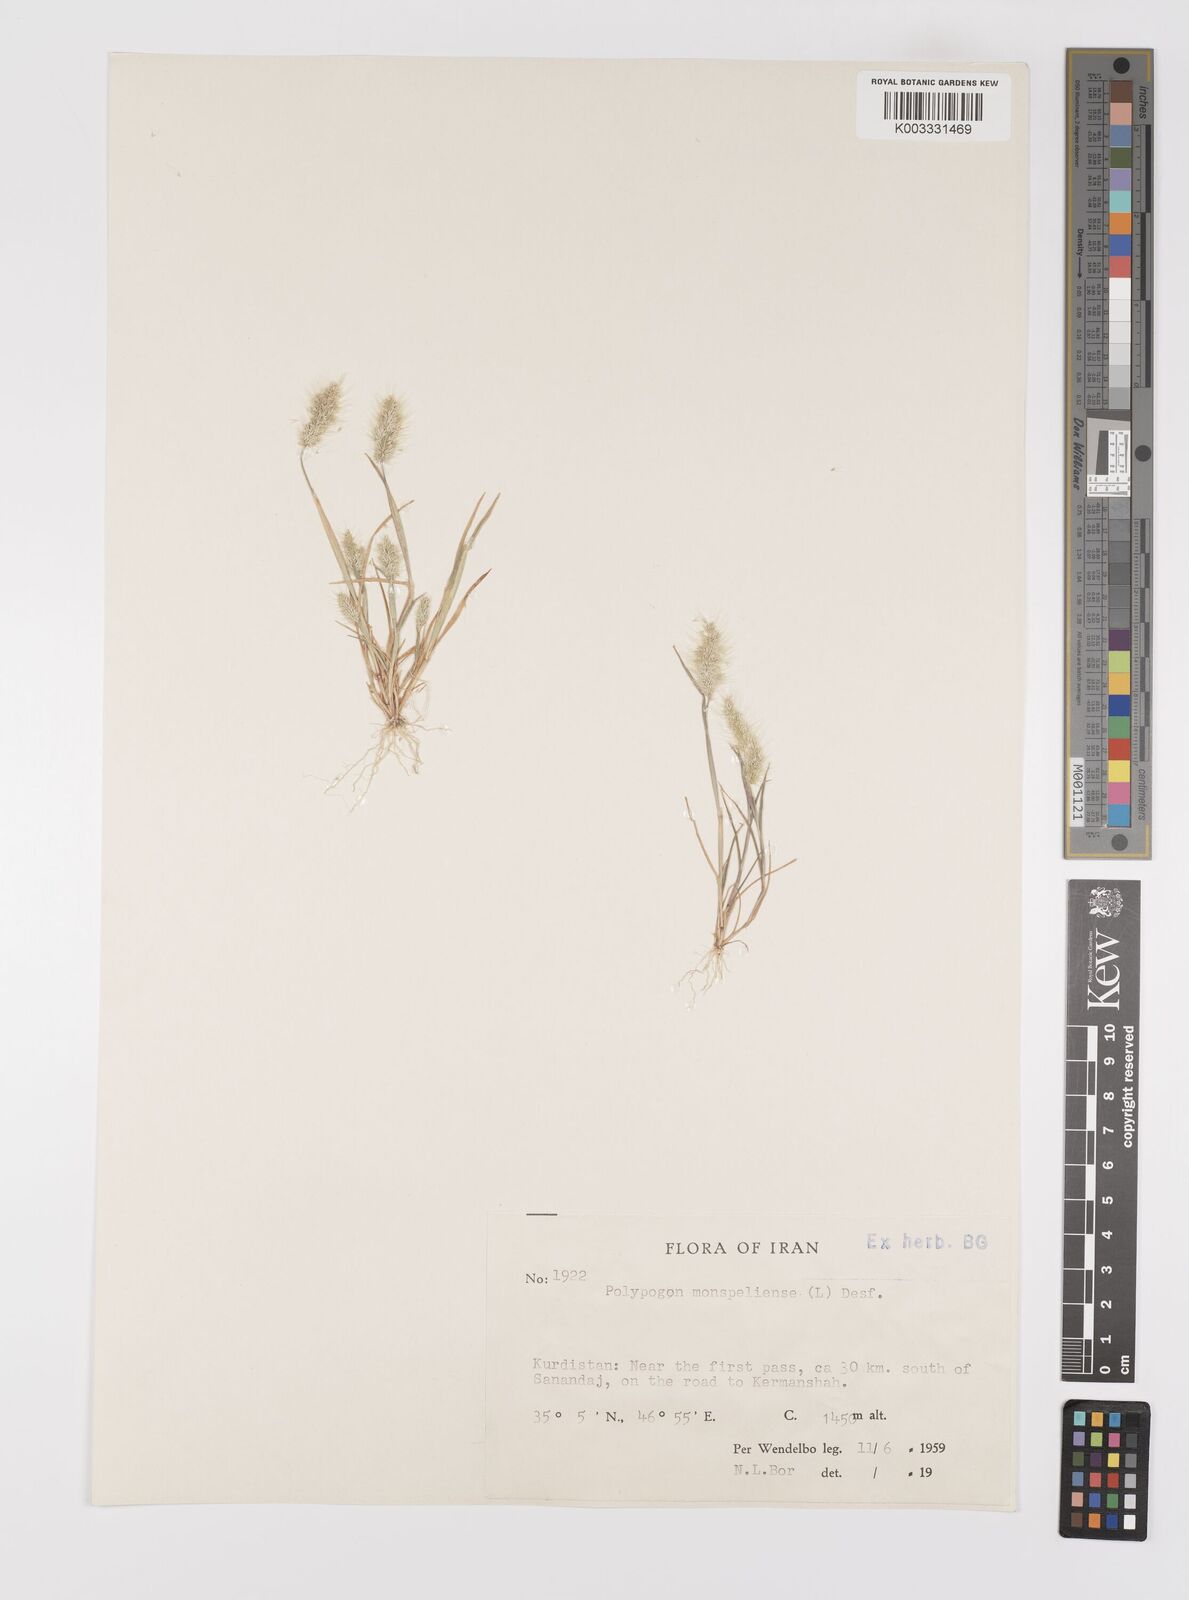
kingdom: Plantae
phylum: Tracheophyta
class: Liliopsida
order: Poales
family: Poaceae
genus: Polypogon
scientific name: Polypogon maritimus
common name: Mediterranean rabbitsfoot grass
